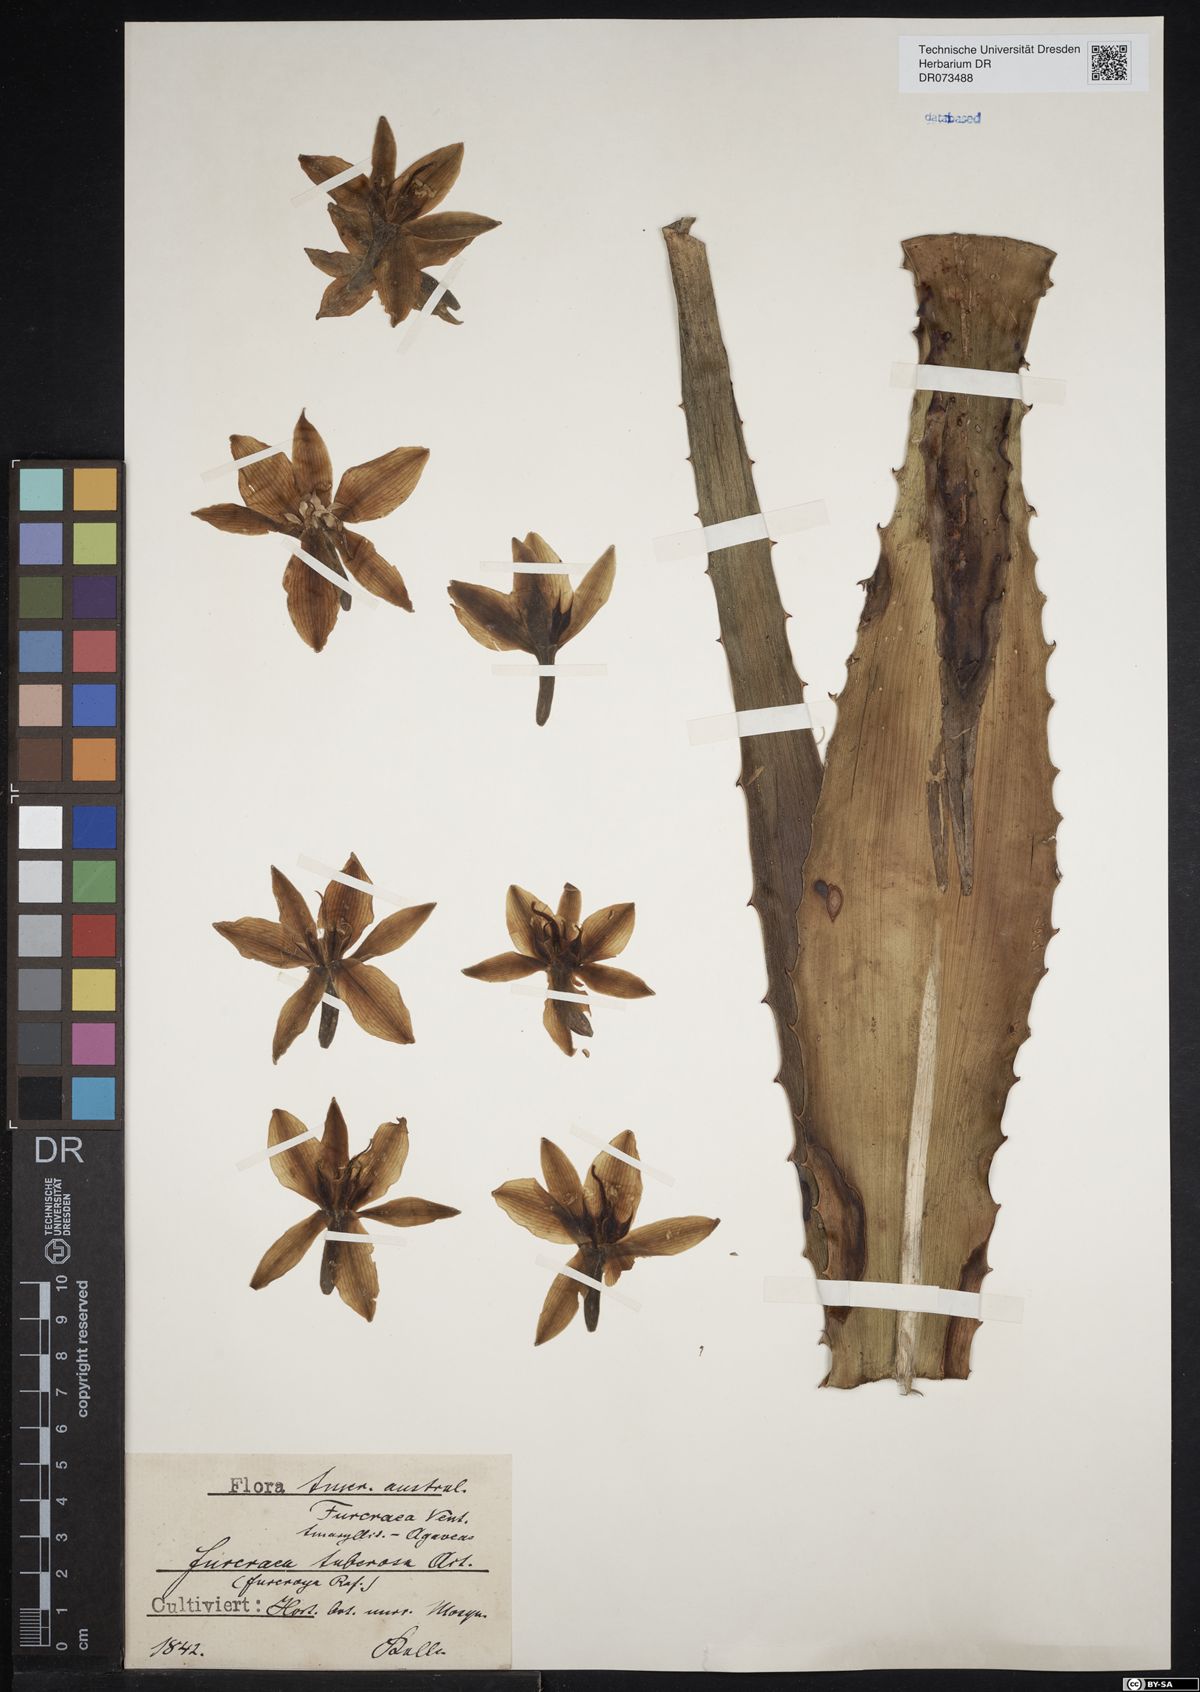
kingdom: Plantae
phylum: Tracheophyta
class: Liliopsida
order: Asparagales
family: Asparagaceae
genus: Furcraea
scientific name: Furcraea tuberosa
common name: Karata
